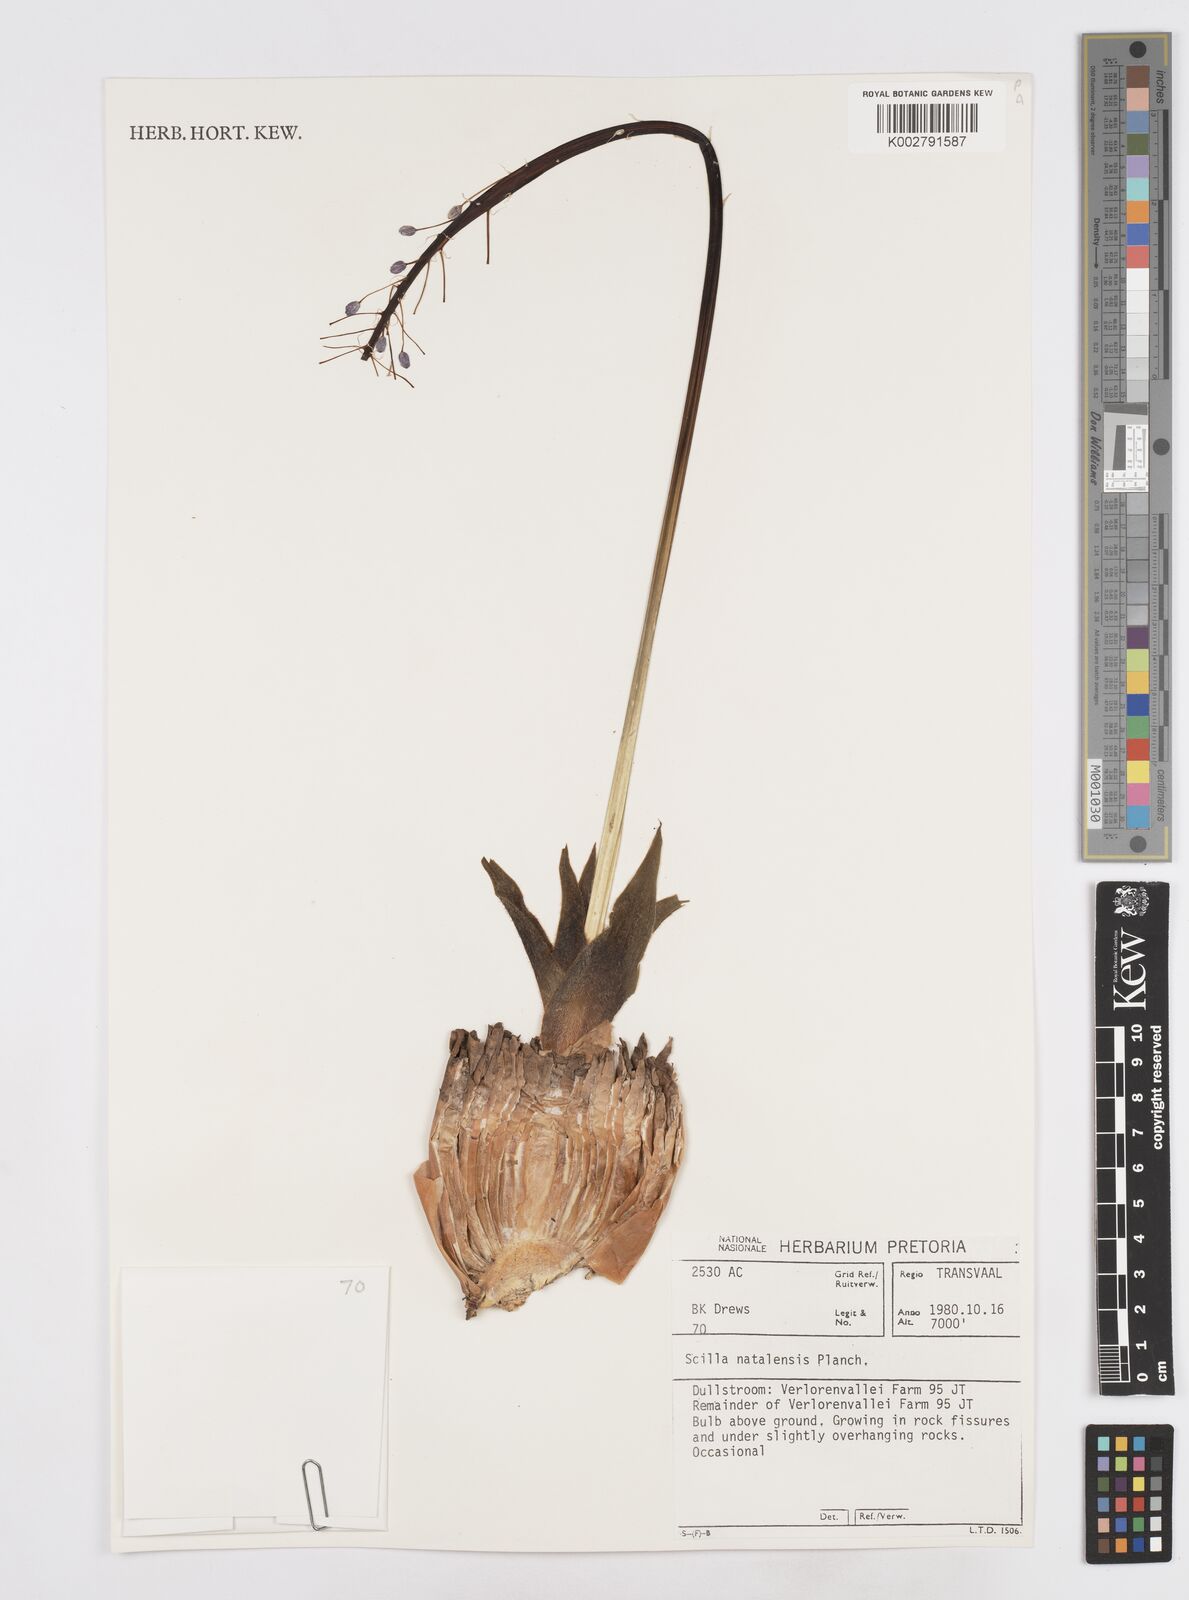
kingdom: Plantae
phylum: Tracheophyta
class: Liliopsida
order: Asparagales
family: Asparagaceae
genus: Merwilla
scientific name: Merwilla plumbea
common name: Blue-squill
